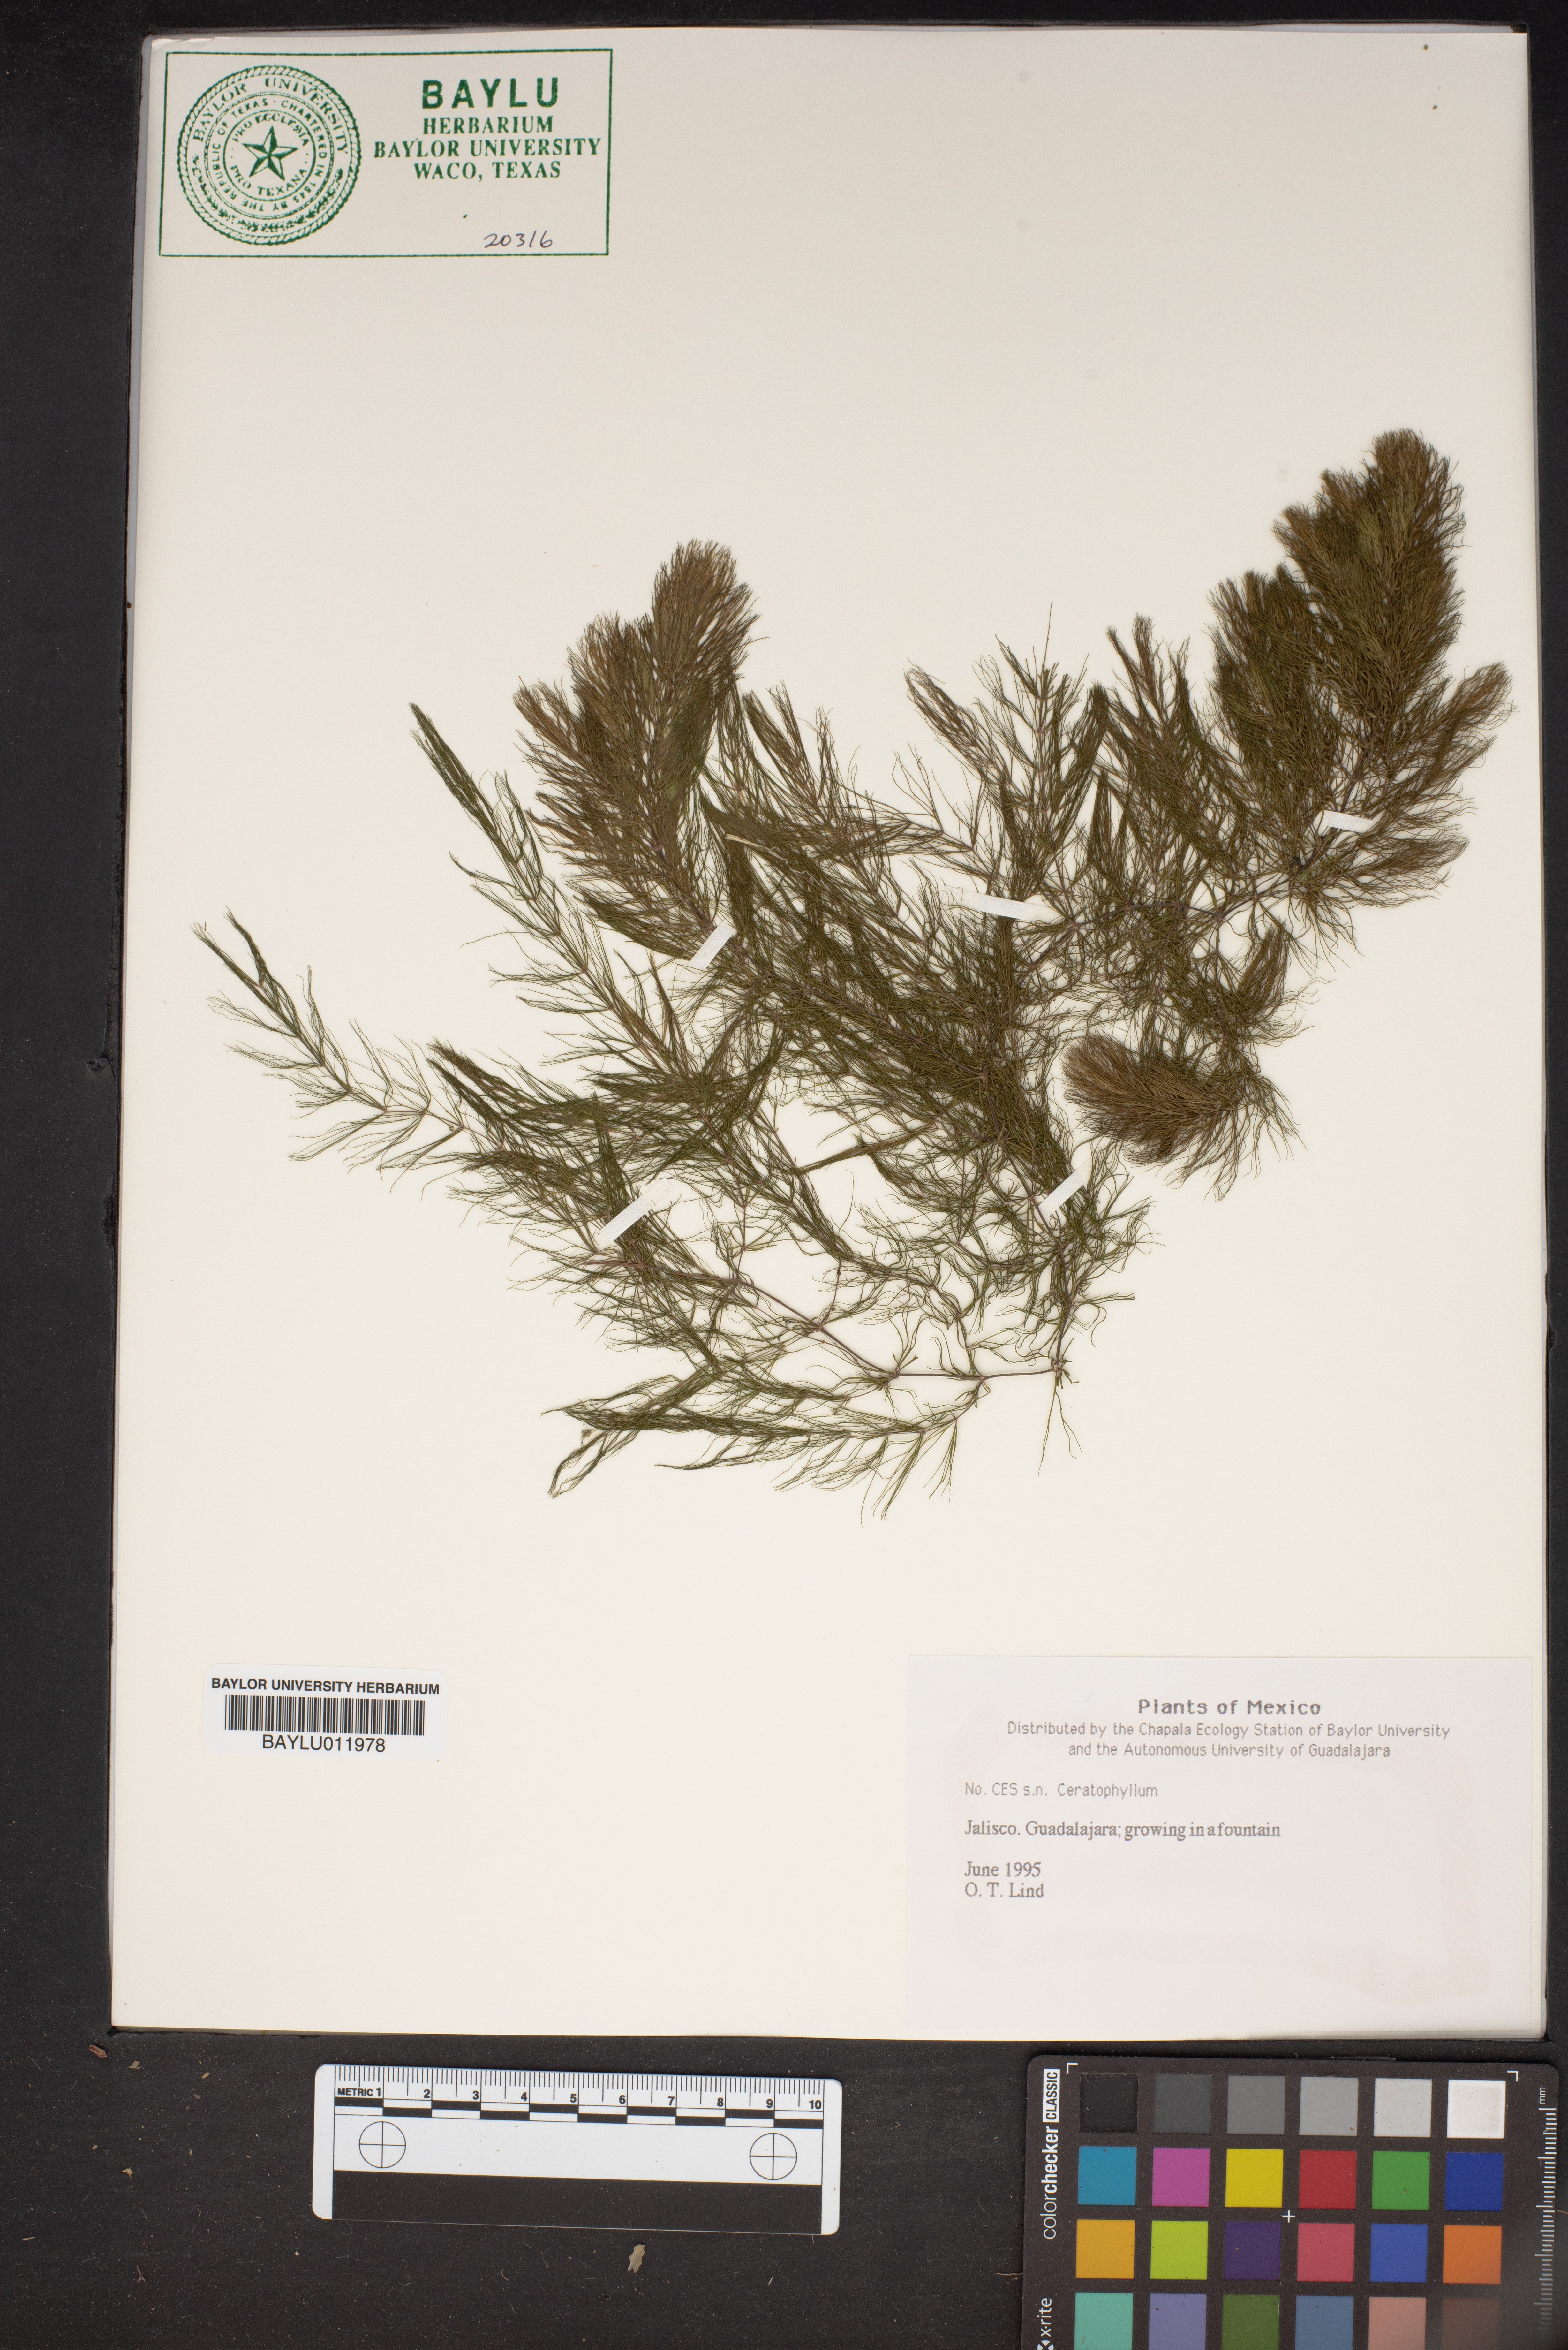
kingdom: Plantae
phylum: Tracheophyta
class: Magnoliopsida
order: Ceratophyllales
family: Ceratophyllaceae
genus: Ceratophyllum
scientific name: Ceratophyllum
